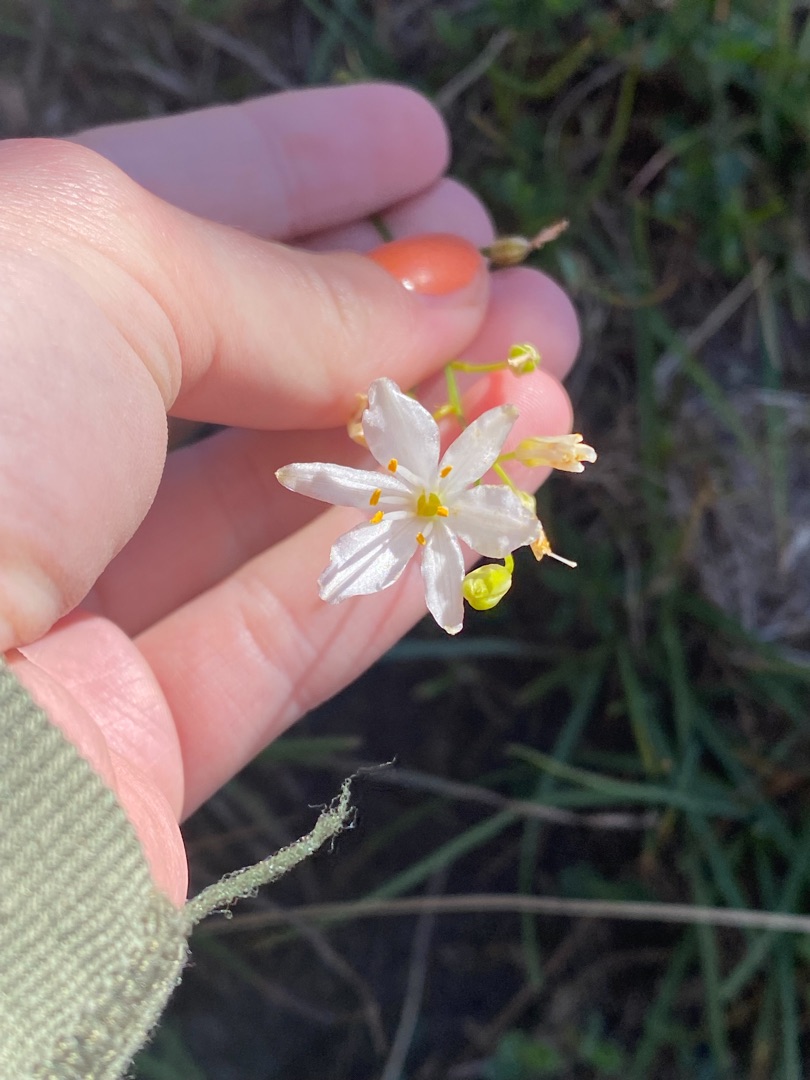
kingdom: Plantae
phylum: Tracheophyta
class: Liliopsida
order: Asparagales
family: Asparagaceae
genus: Anthericum
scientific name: Anthericum ramosum
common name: Grenet edderkopurt
